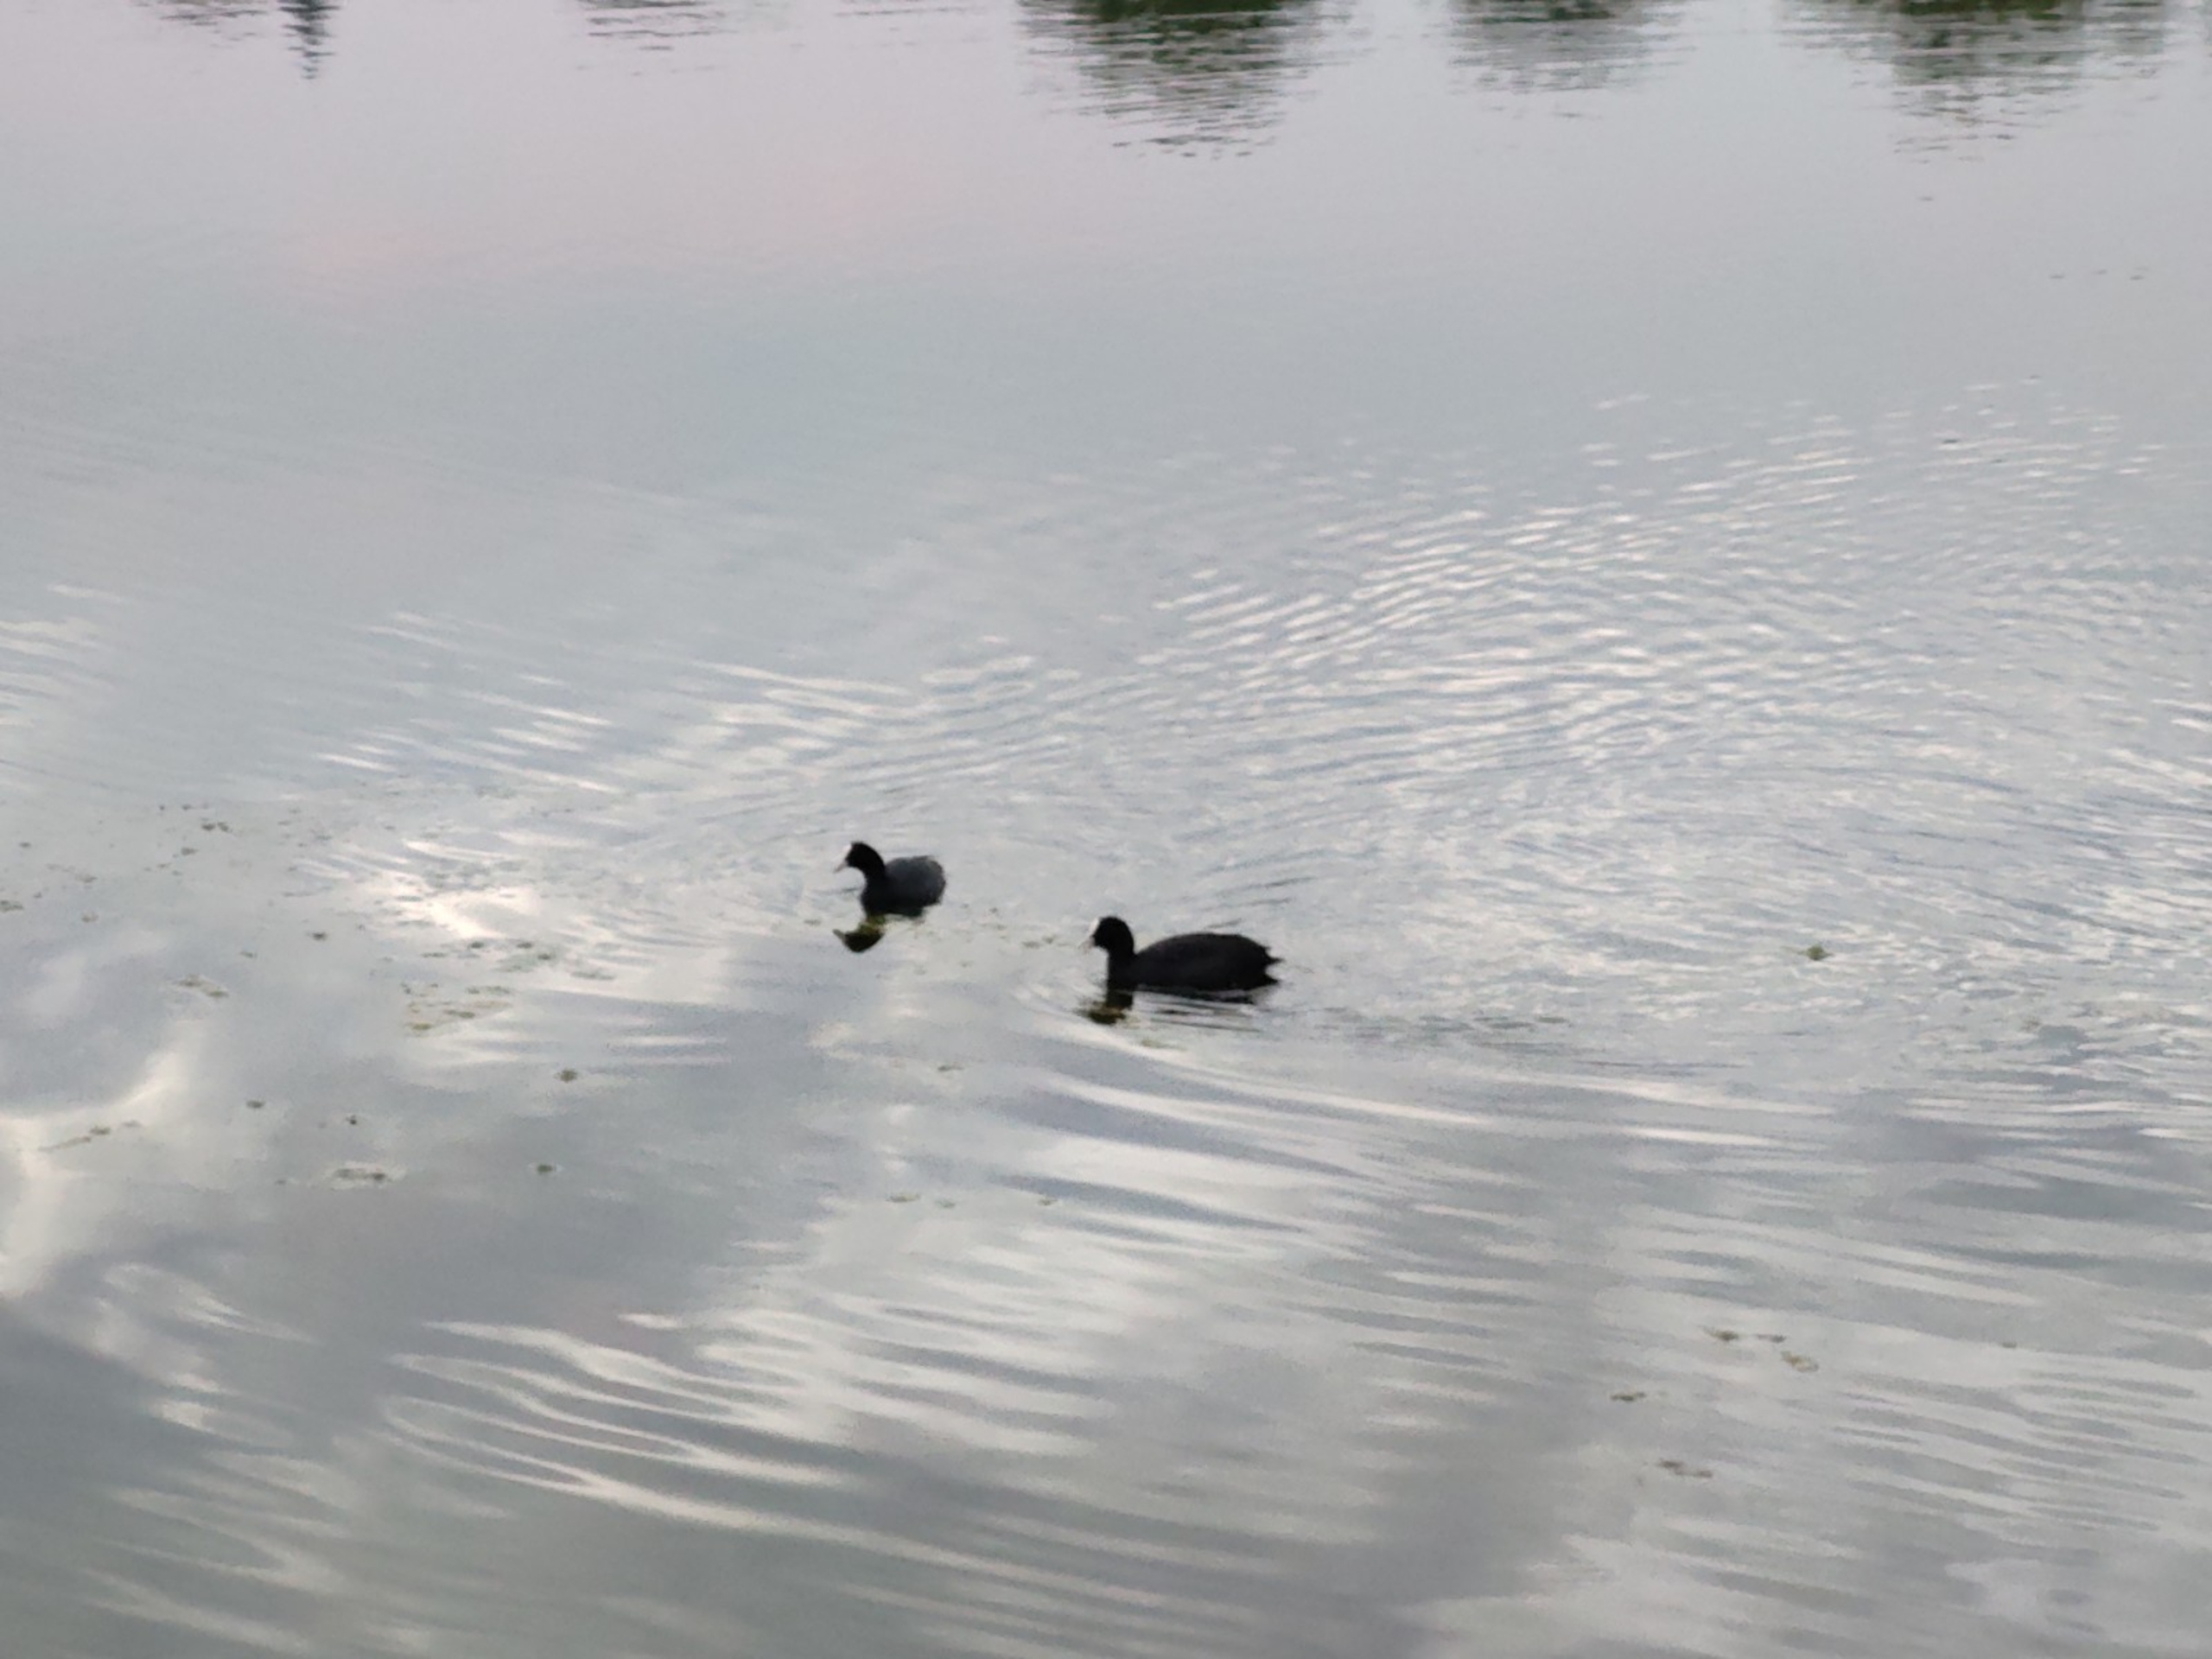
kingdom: Animalia
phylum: Chordata
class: Aves
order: Gruiformes
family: Rallidae
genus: Fulica
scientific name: Fulica atra
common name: Blishøne
